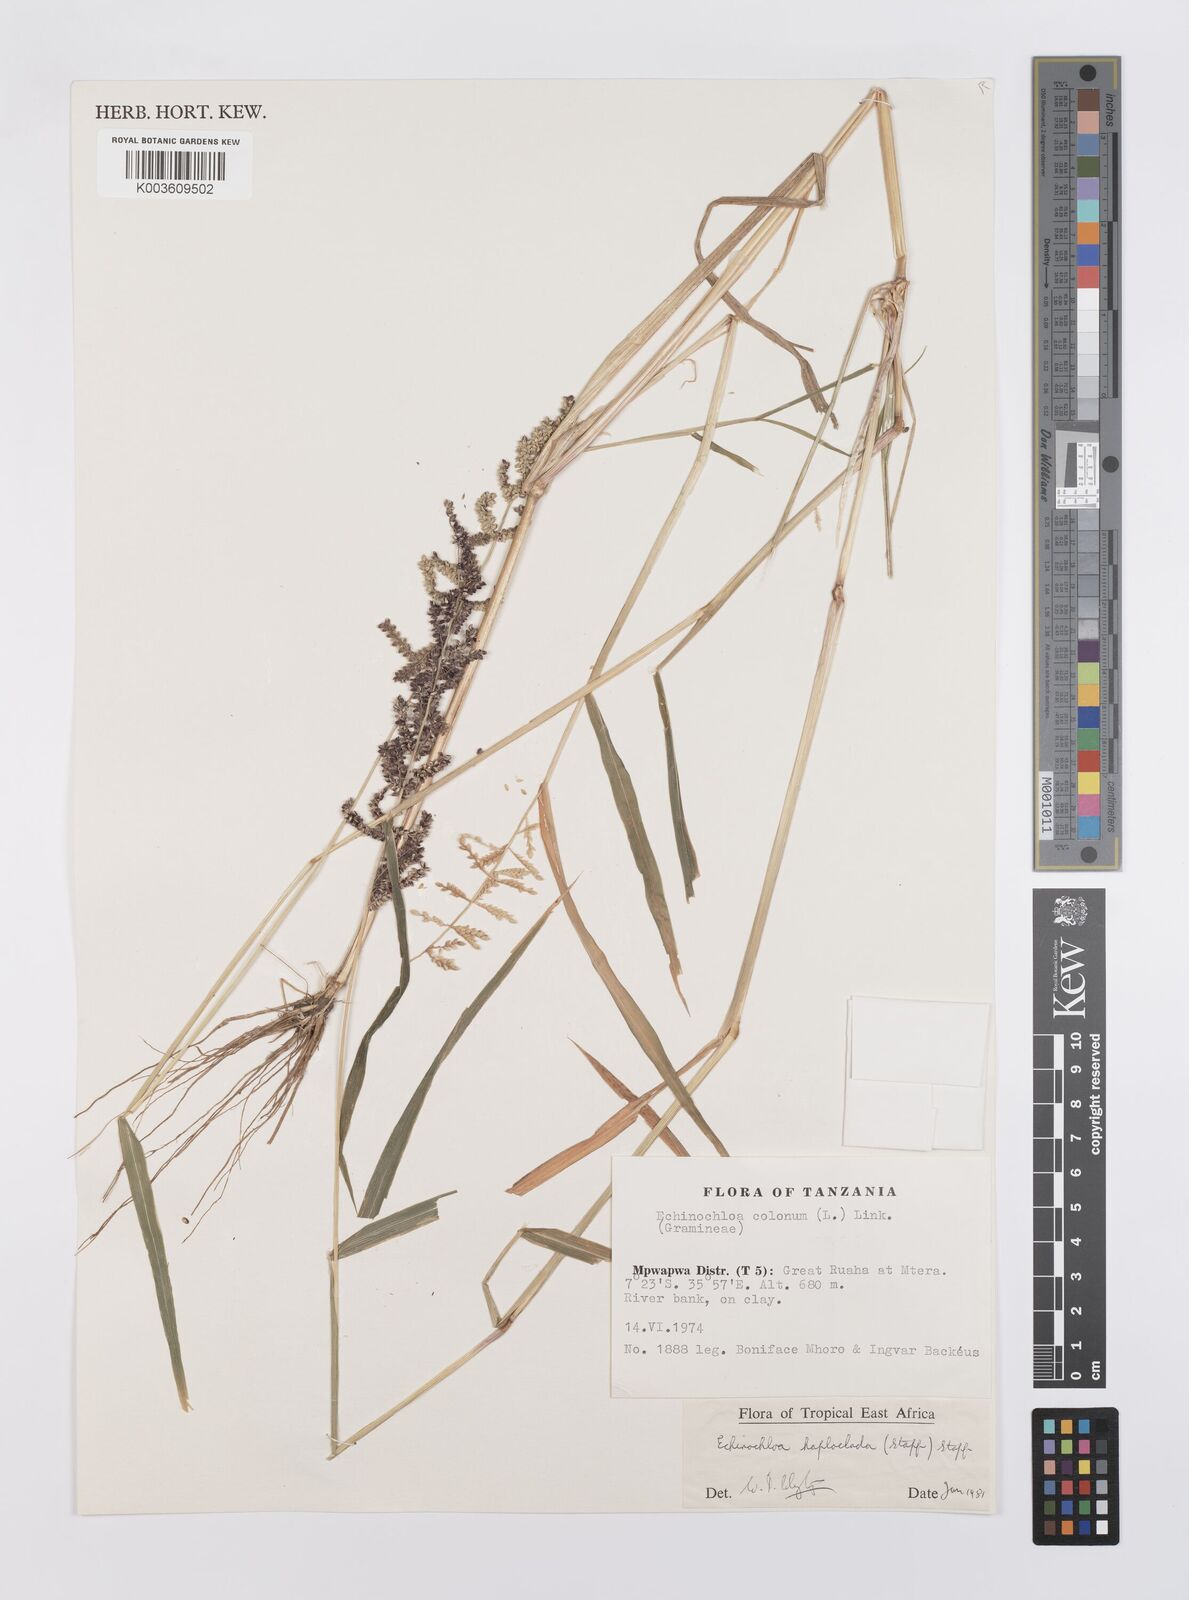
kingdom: Plantae
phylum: Tracheophyta
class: Liliopsida
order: Poales
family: Poaceae
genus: Echinochloa
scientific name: Echinochloa haploclada
